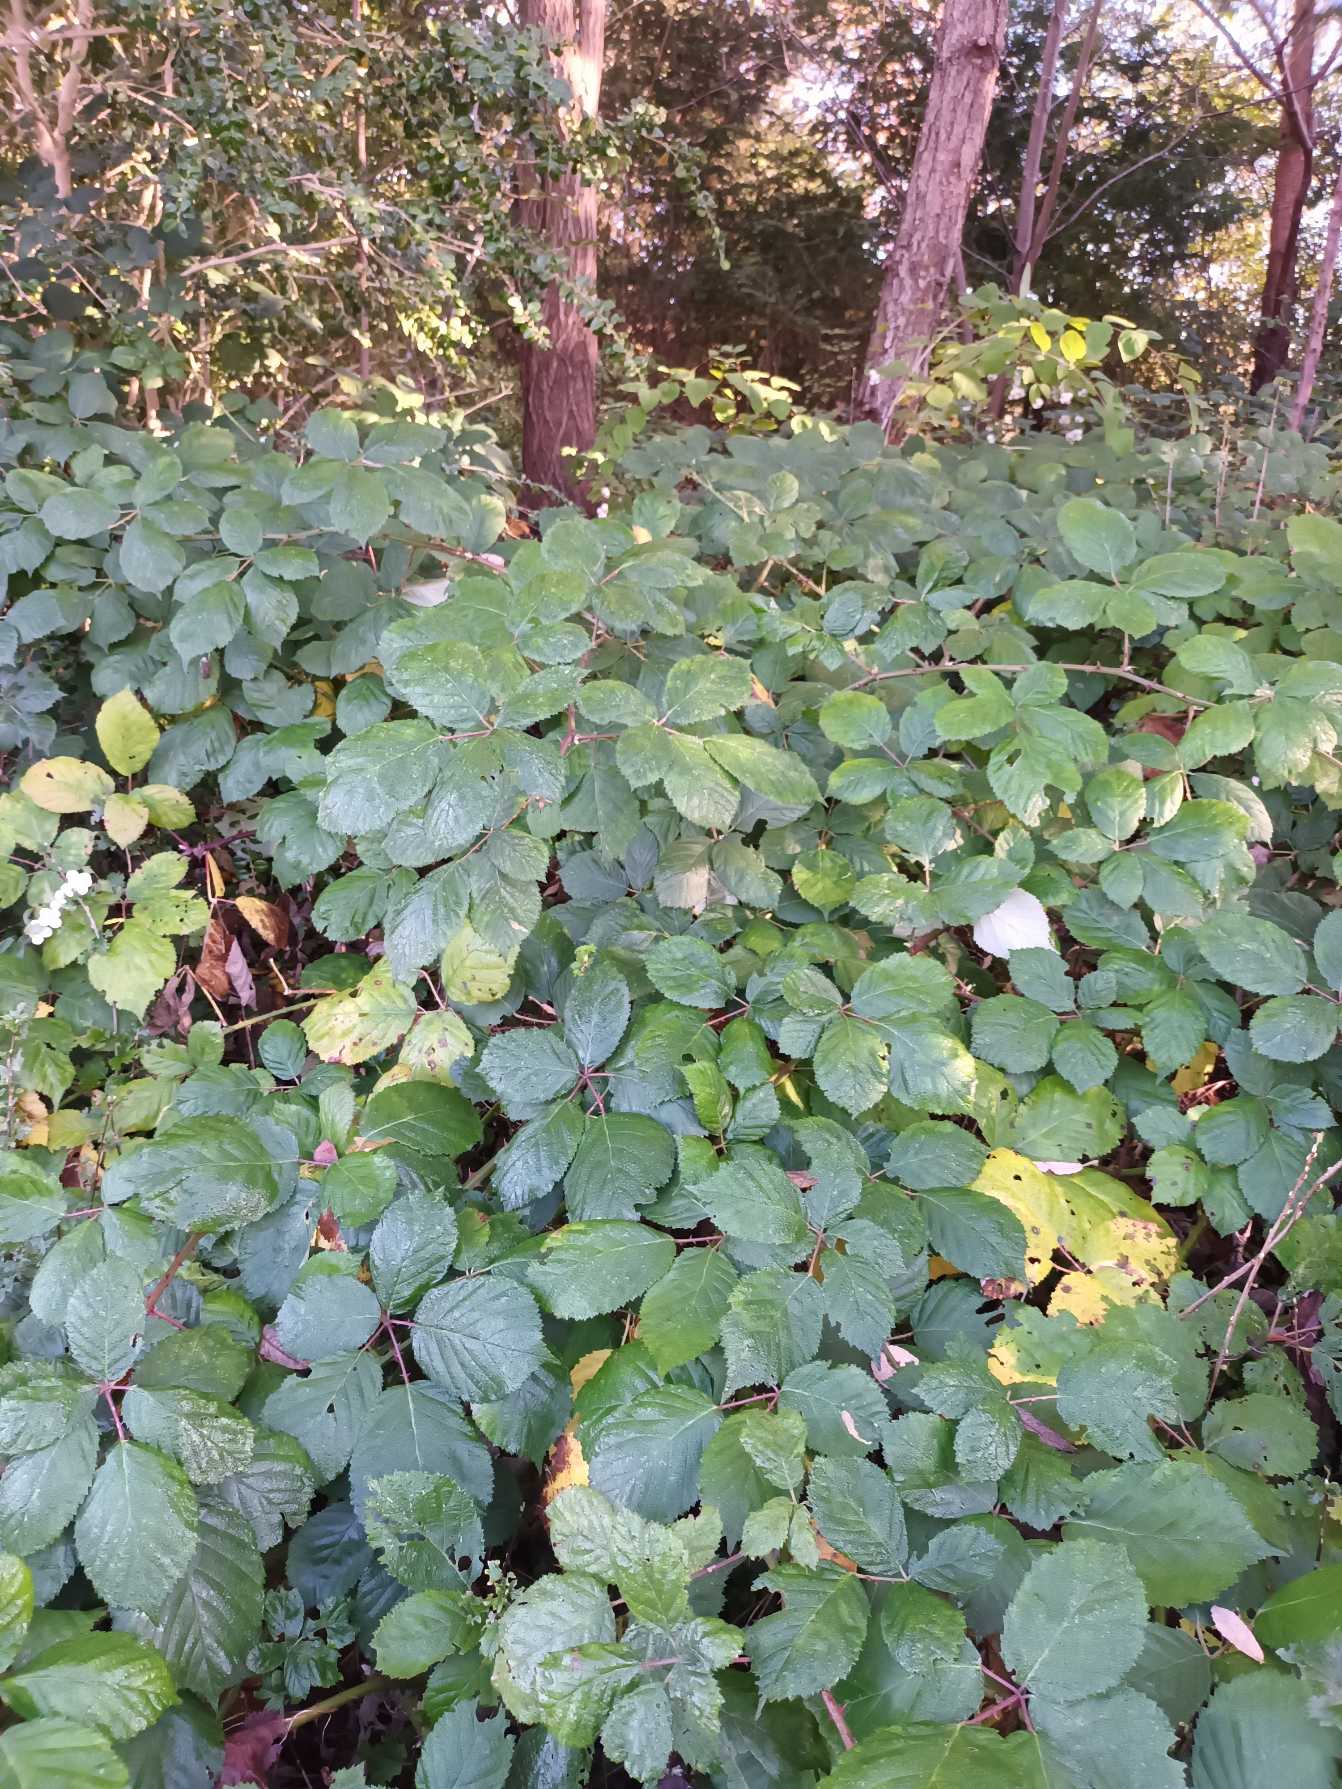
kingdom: Plantae
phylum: Tracheophyta
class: Magnoliopsida
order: Rosales
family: Rosaceae
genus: Rubus
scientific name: Rubus armeniacus
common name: Armensk brombær
